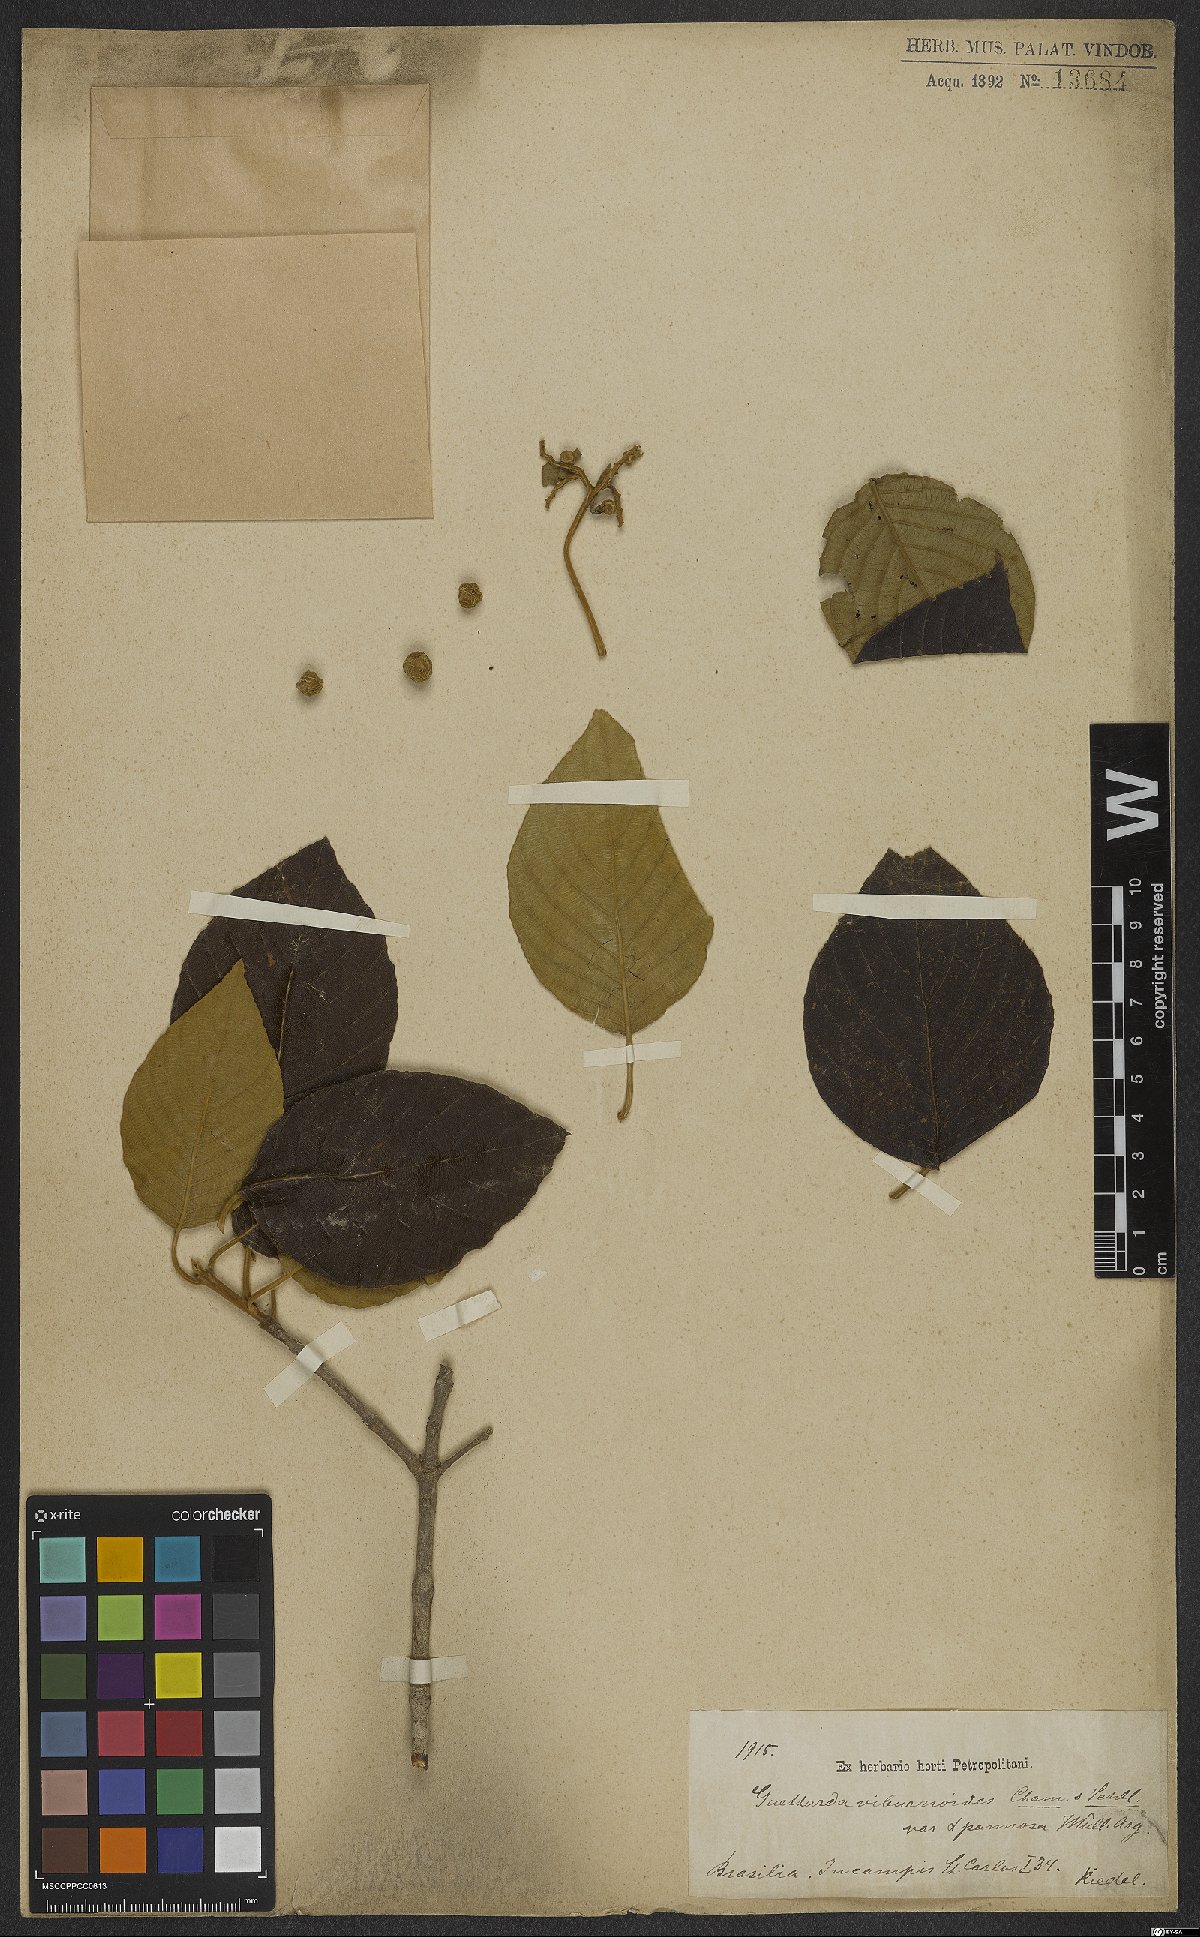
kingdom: Plantae
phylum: Tracheophyta
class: Magnoliopsida
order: Gentianales
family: Rubiaceae
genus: Guettarda
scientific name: Guettarda viburnoides
